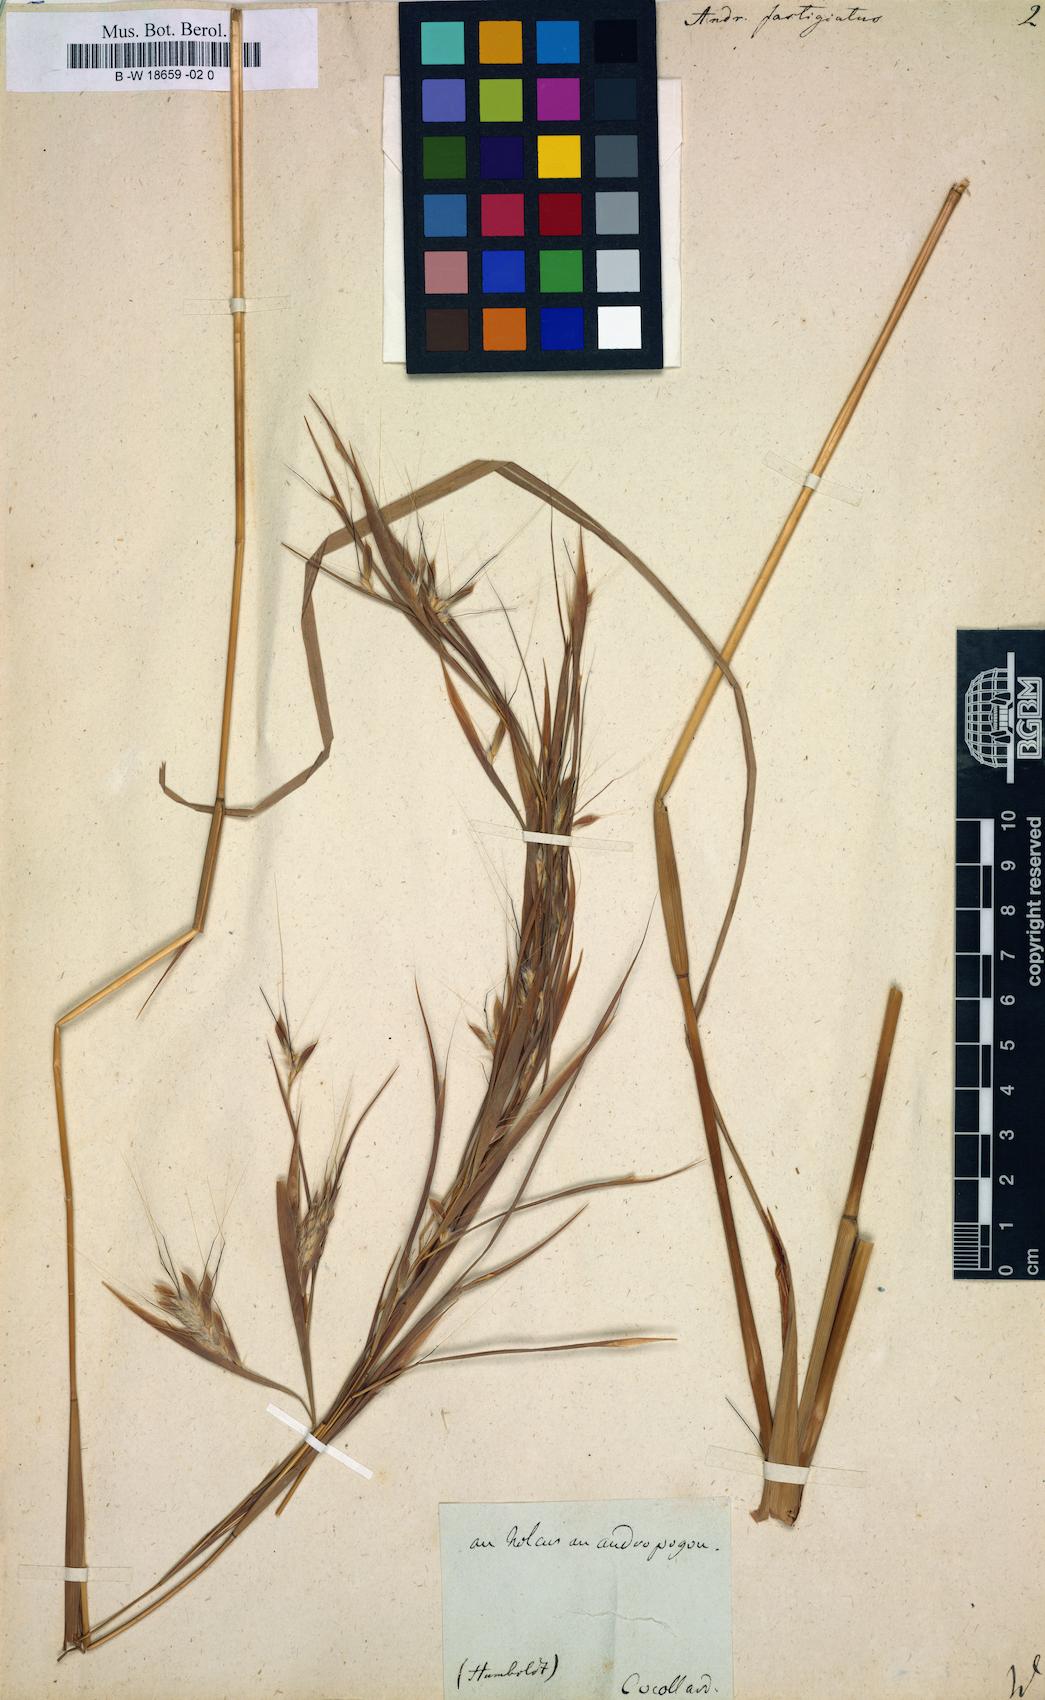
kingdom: Plantae
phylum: Tracheophyta
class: Liliopsida
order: Poales
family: Poaceae
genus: Diectomis
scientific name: Diectomis fastigiata
